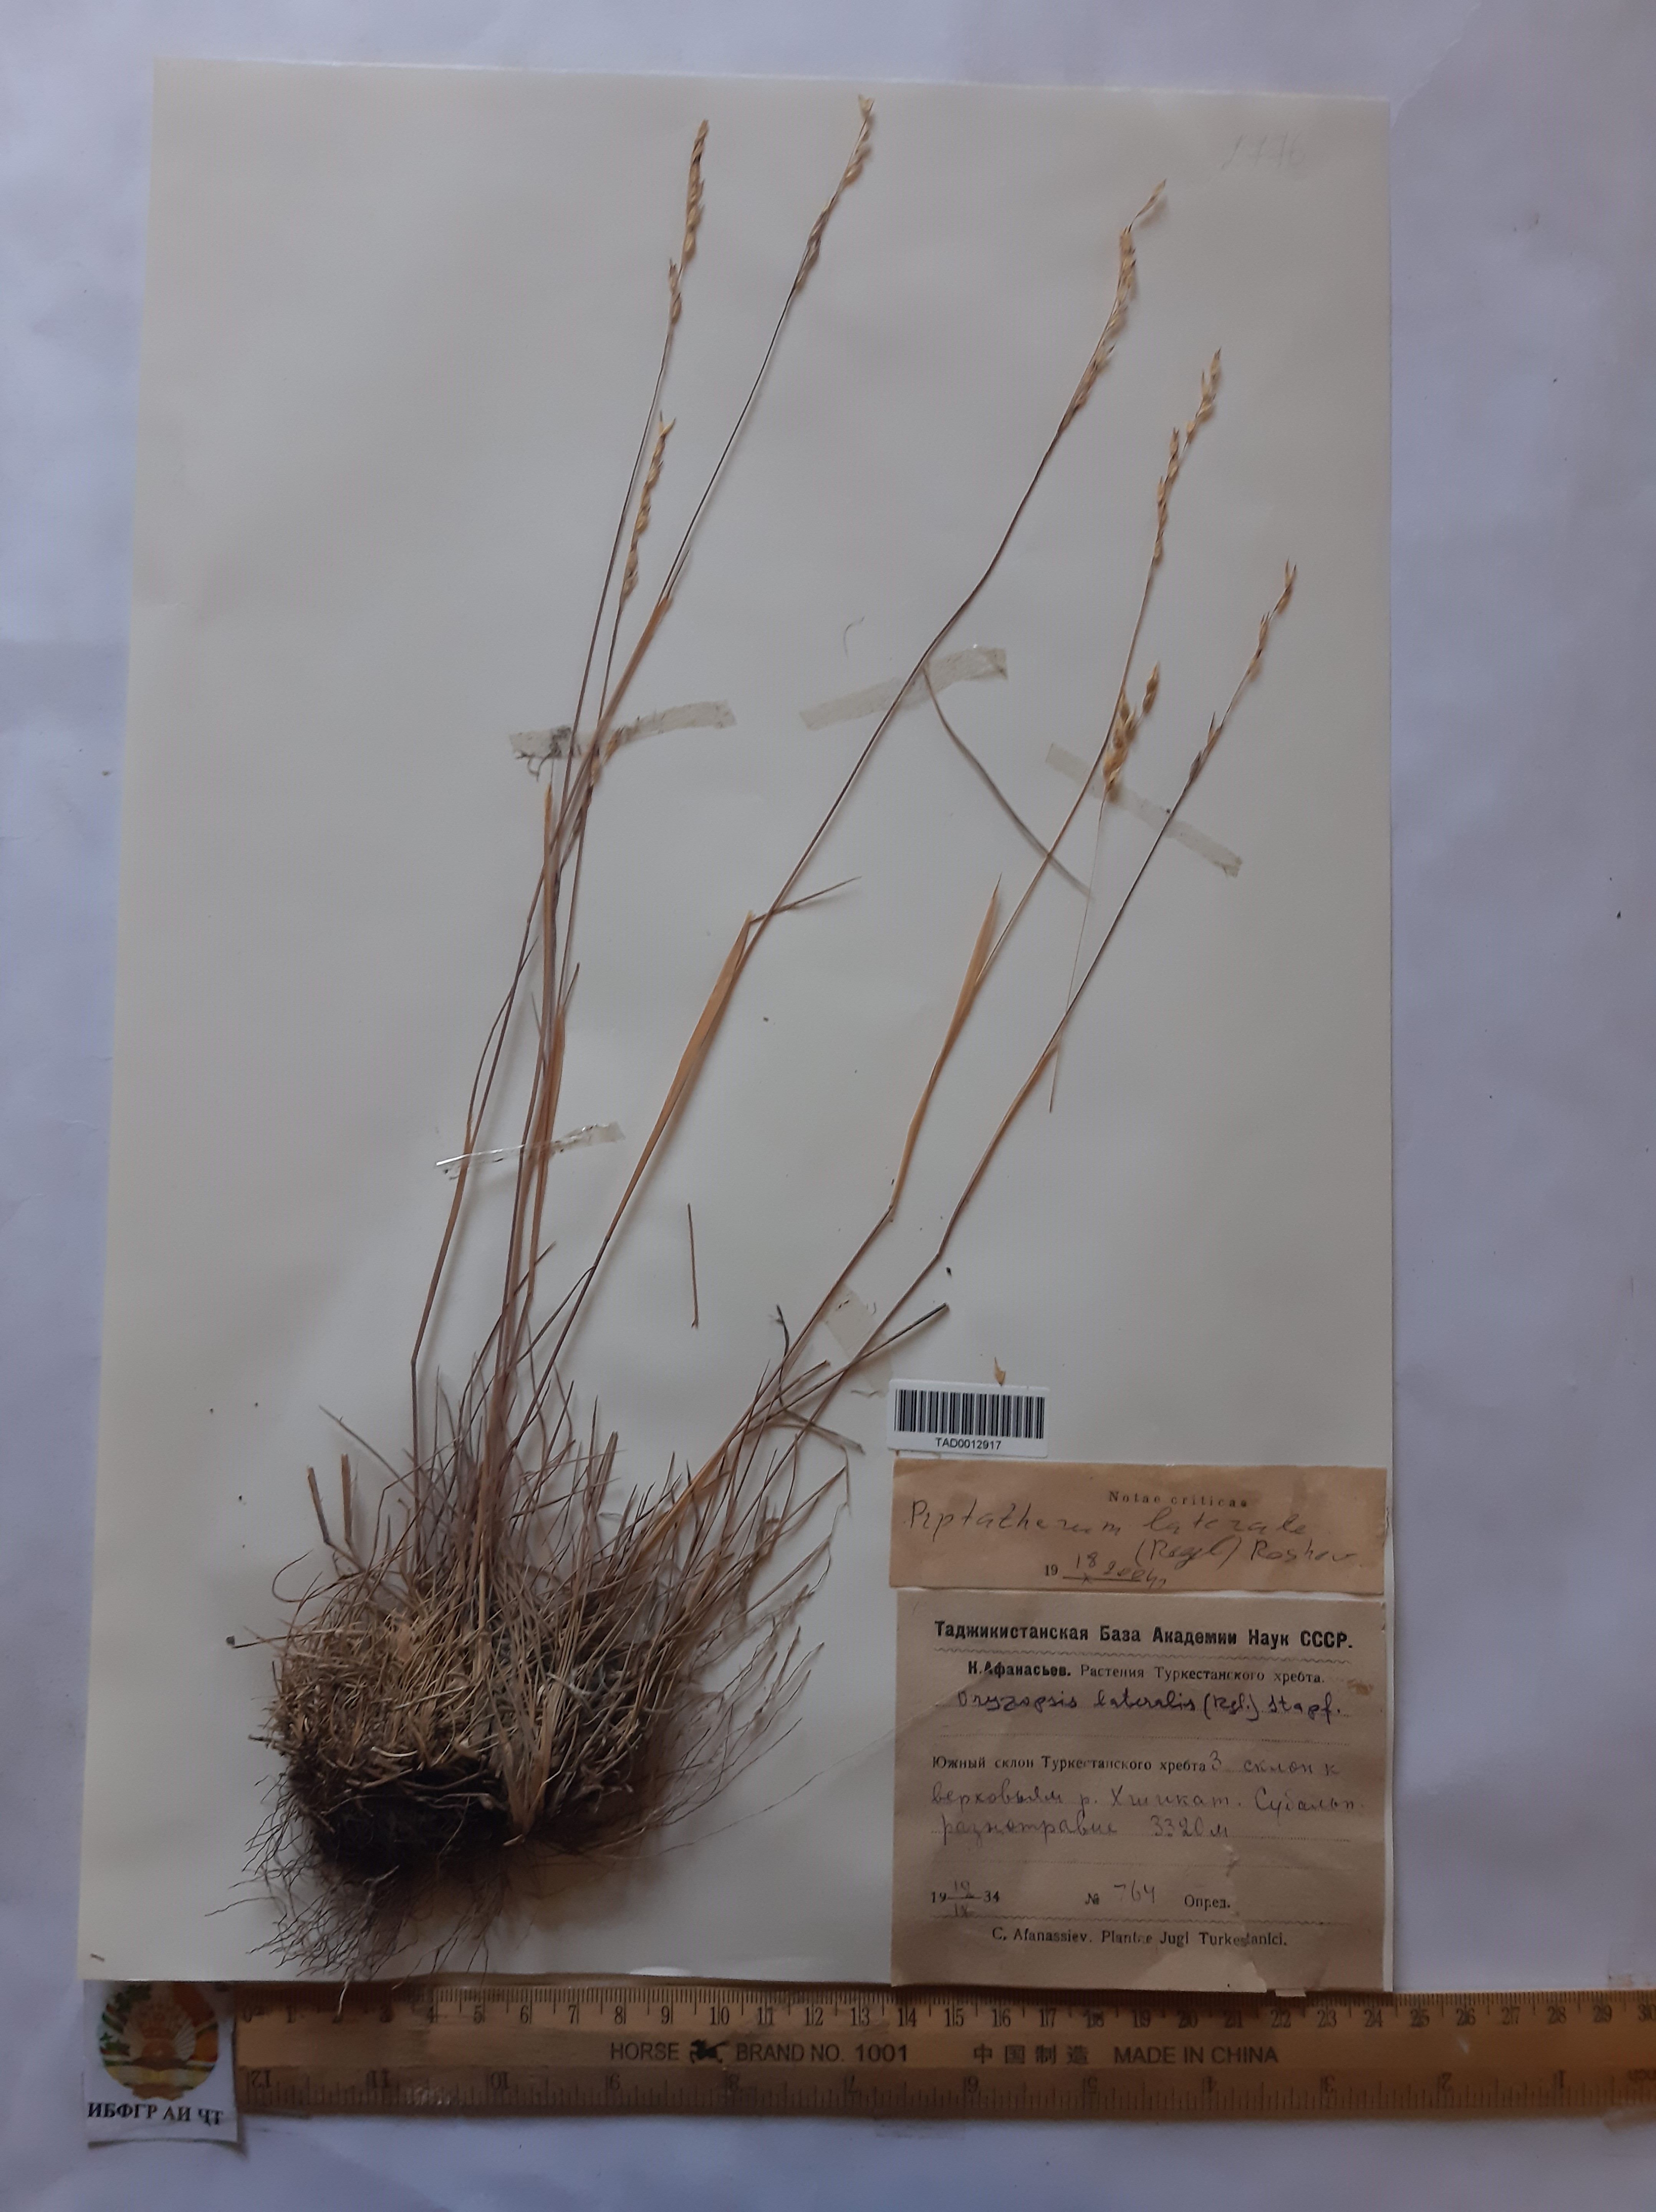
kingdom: Plantae
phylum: Tracheophyta
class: Liliopsida
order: Poales
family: Poaceae
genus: Piptatherum
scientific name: Piptatherum laterale
